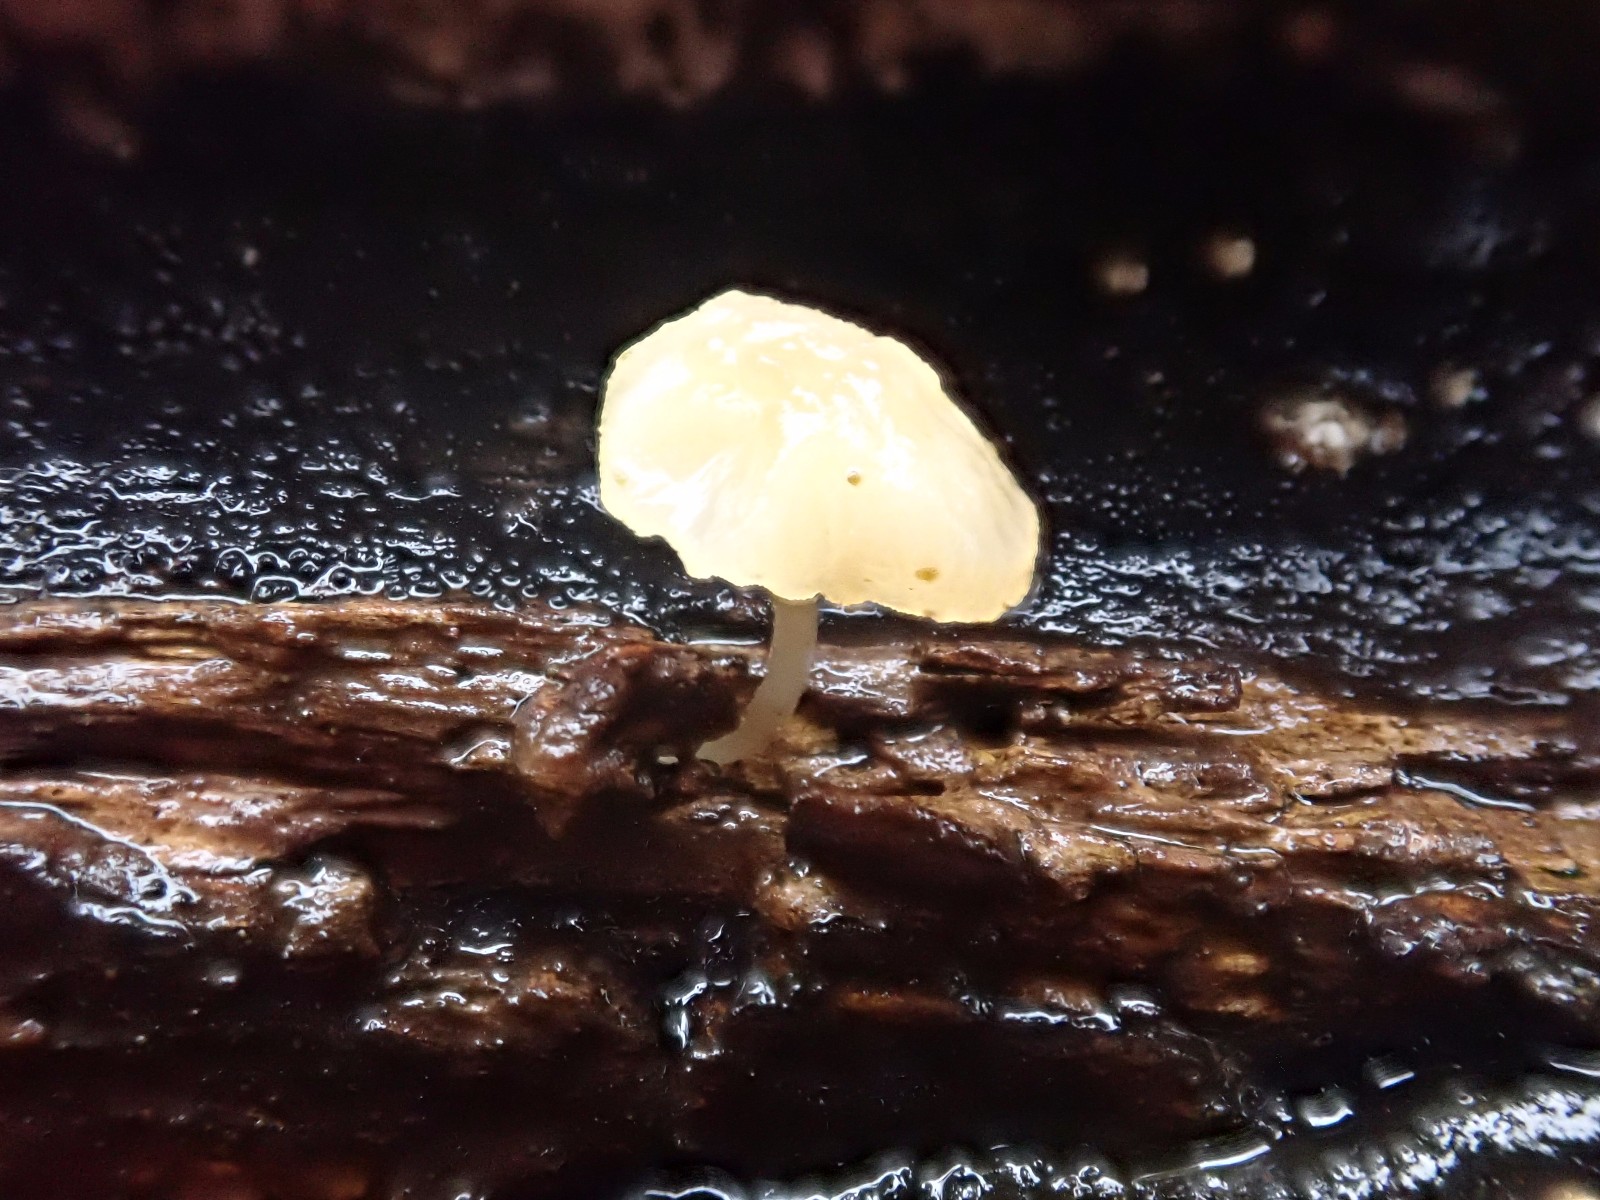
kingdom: Fungi
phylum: Basidiomycota
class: Agaricomycetes
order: Agaricales
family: Porotheleaceae
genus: Phloeomana
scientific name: Phloeomana minutula
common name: bleg huesvamp
